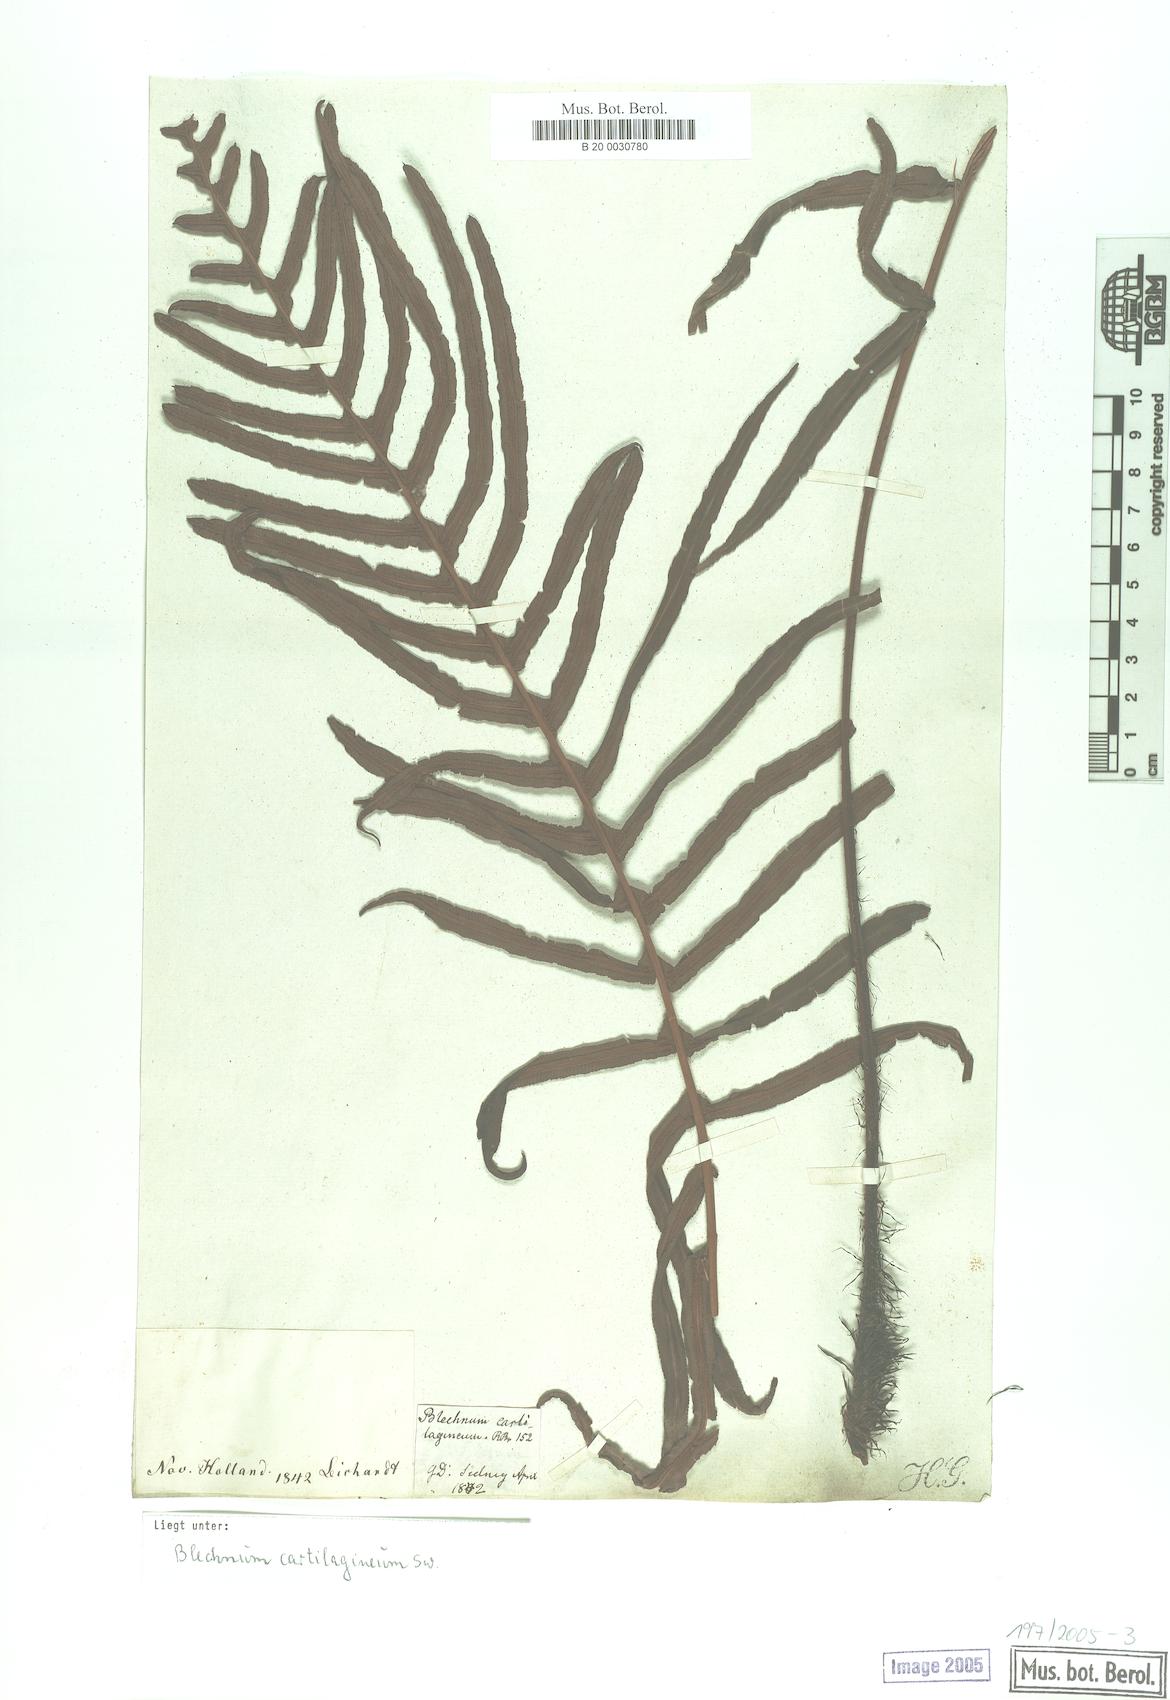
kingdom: Plantae
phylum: Tracheophyta
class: Polypodiopsida
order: Polypodiales
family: Blechnaceae
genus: Blechnum
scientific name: Blechnum occidentale
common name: Hammock fern
